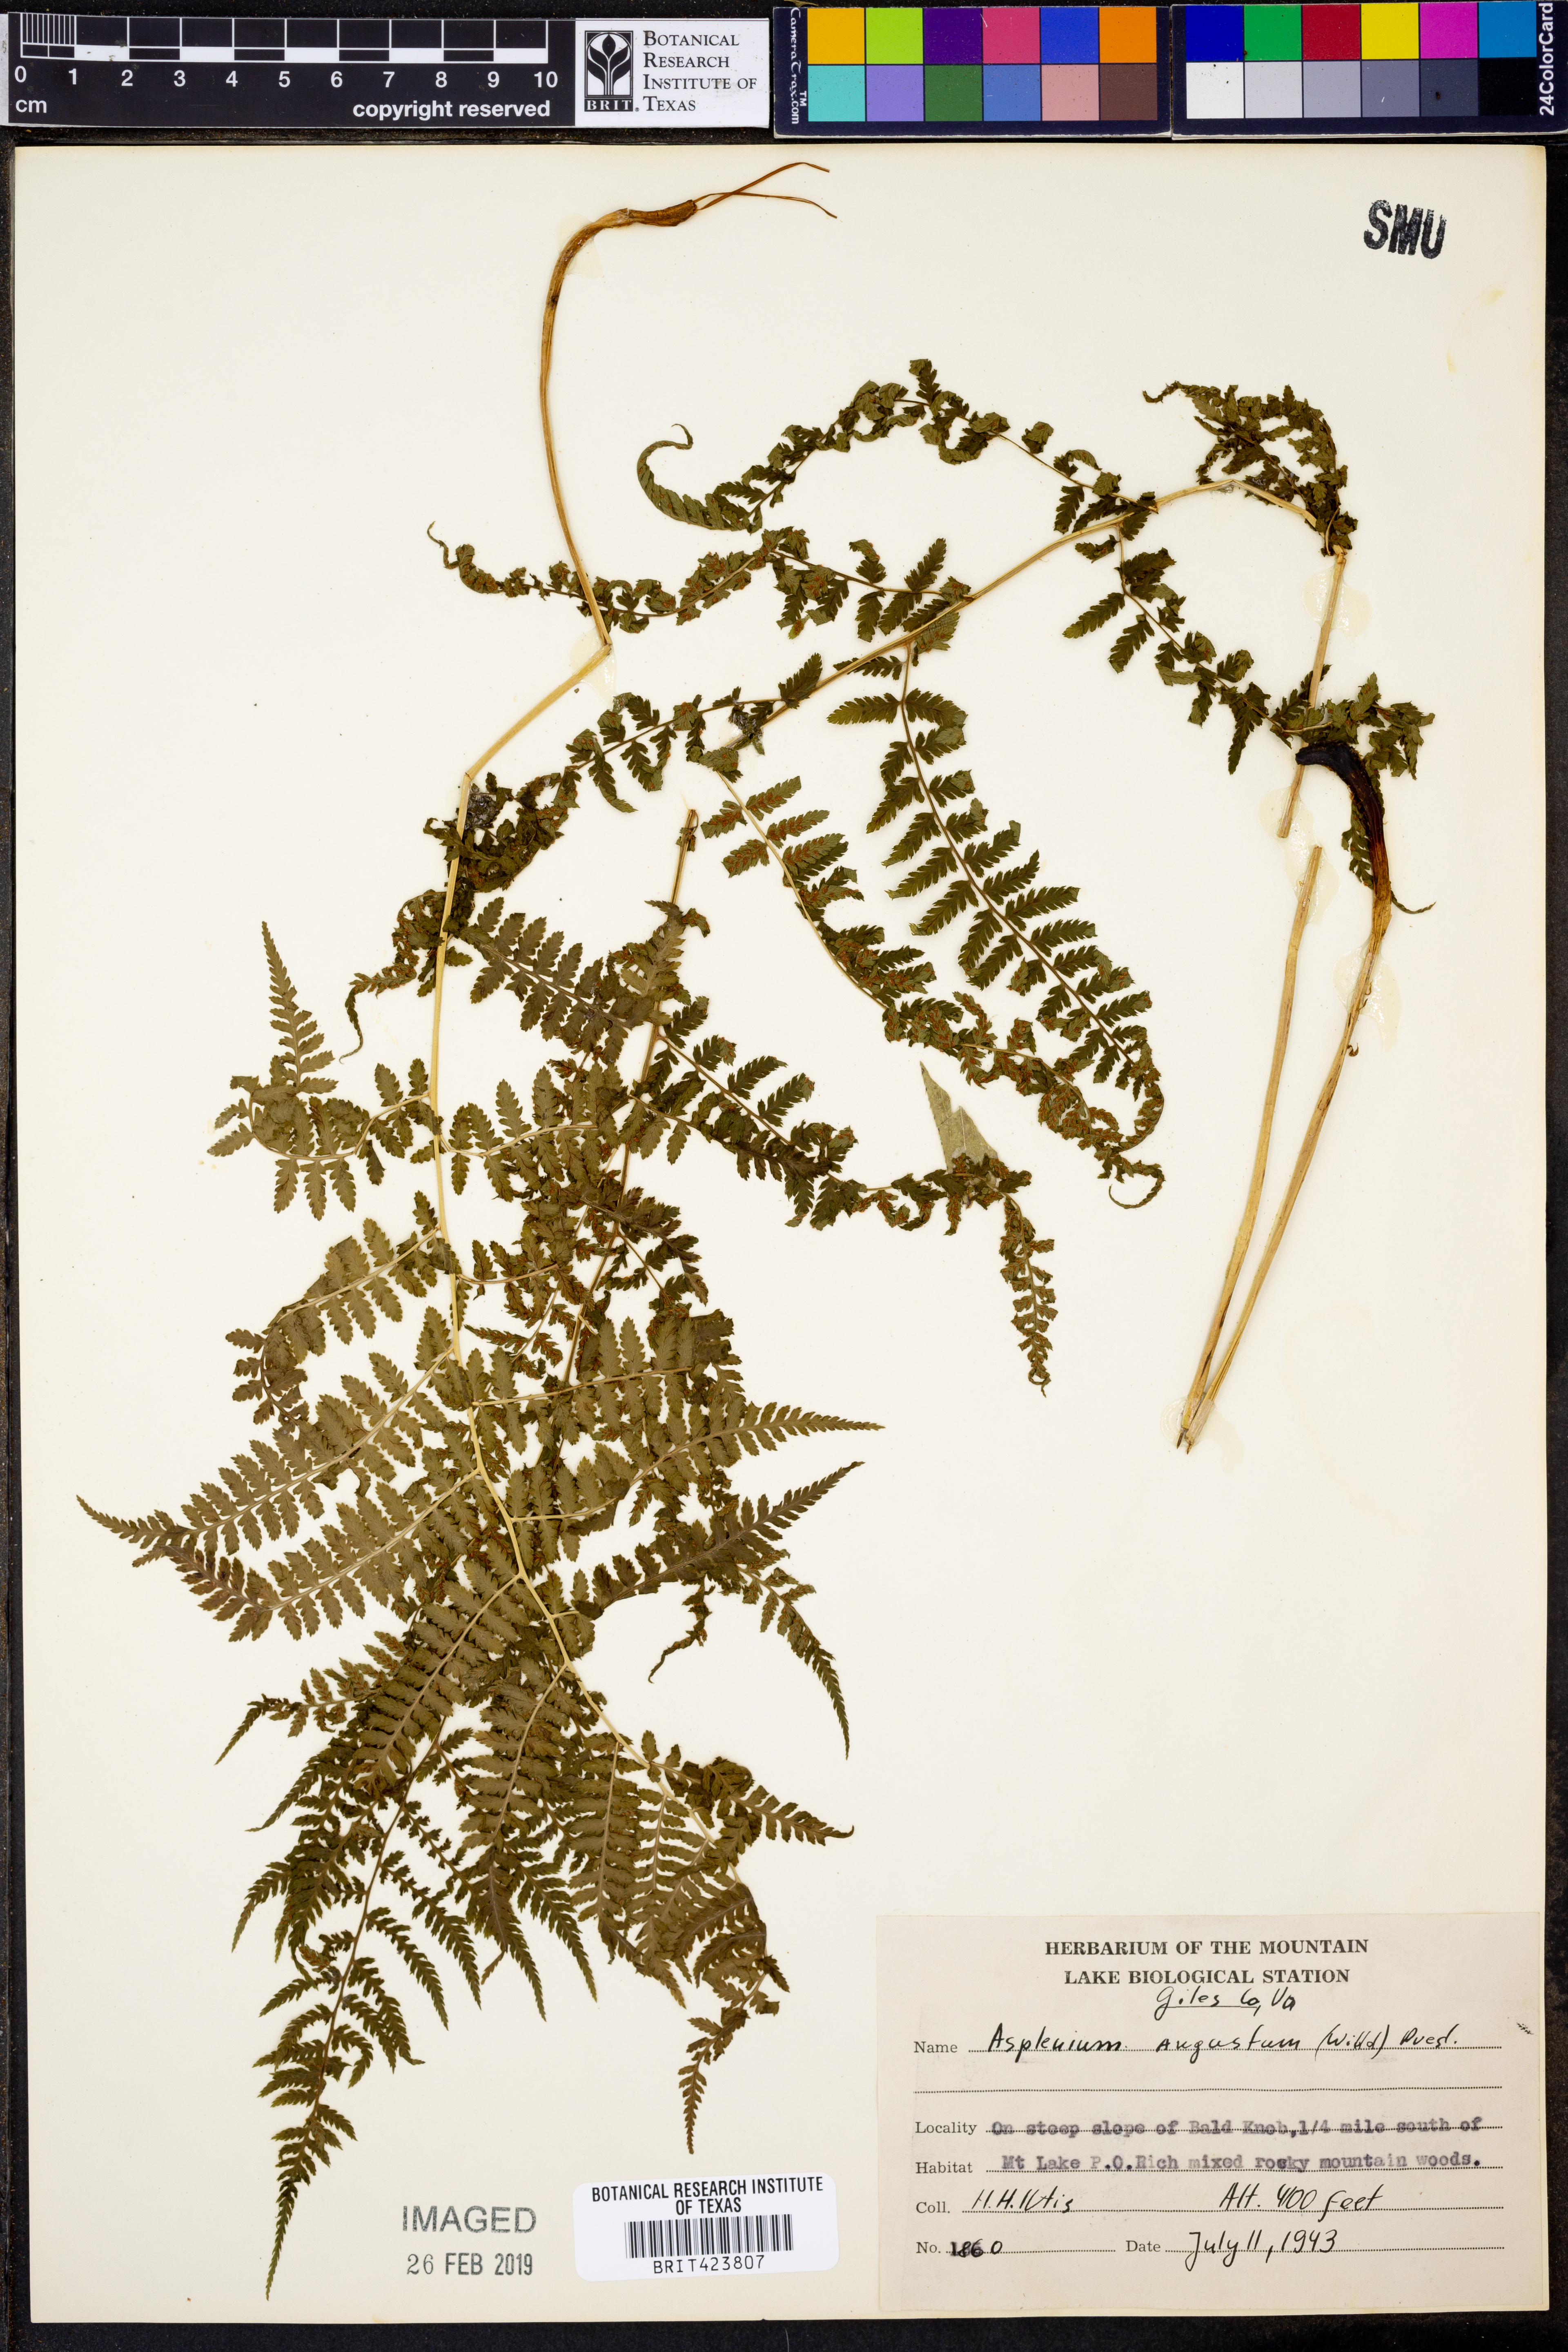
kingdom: Plantae
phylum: Tracheophyta
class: Polypodiopsida
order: Polypodiales
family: Aspleniaceae
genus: Asplenium
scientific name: Asplenium angustum
